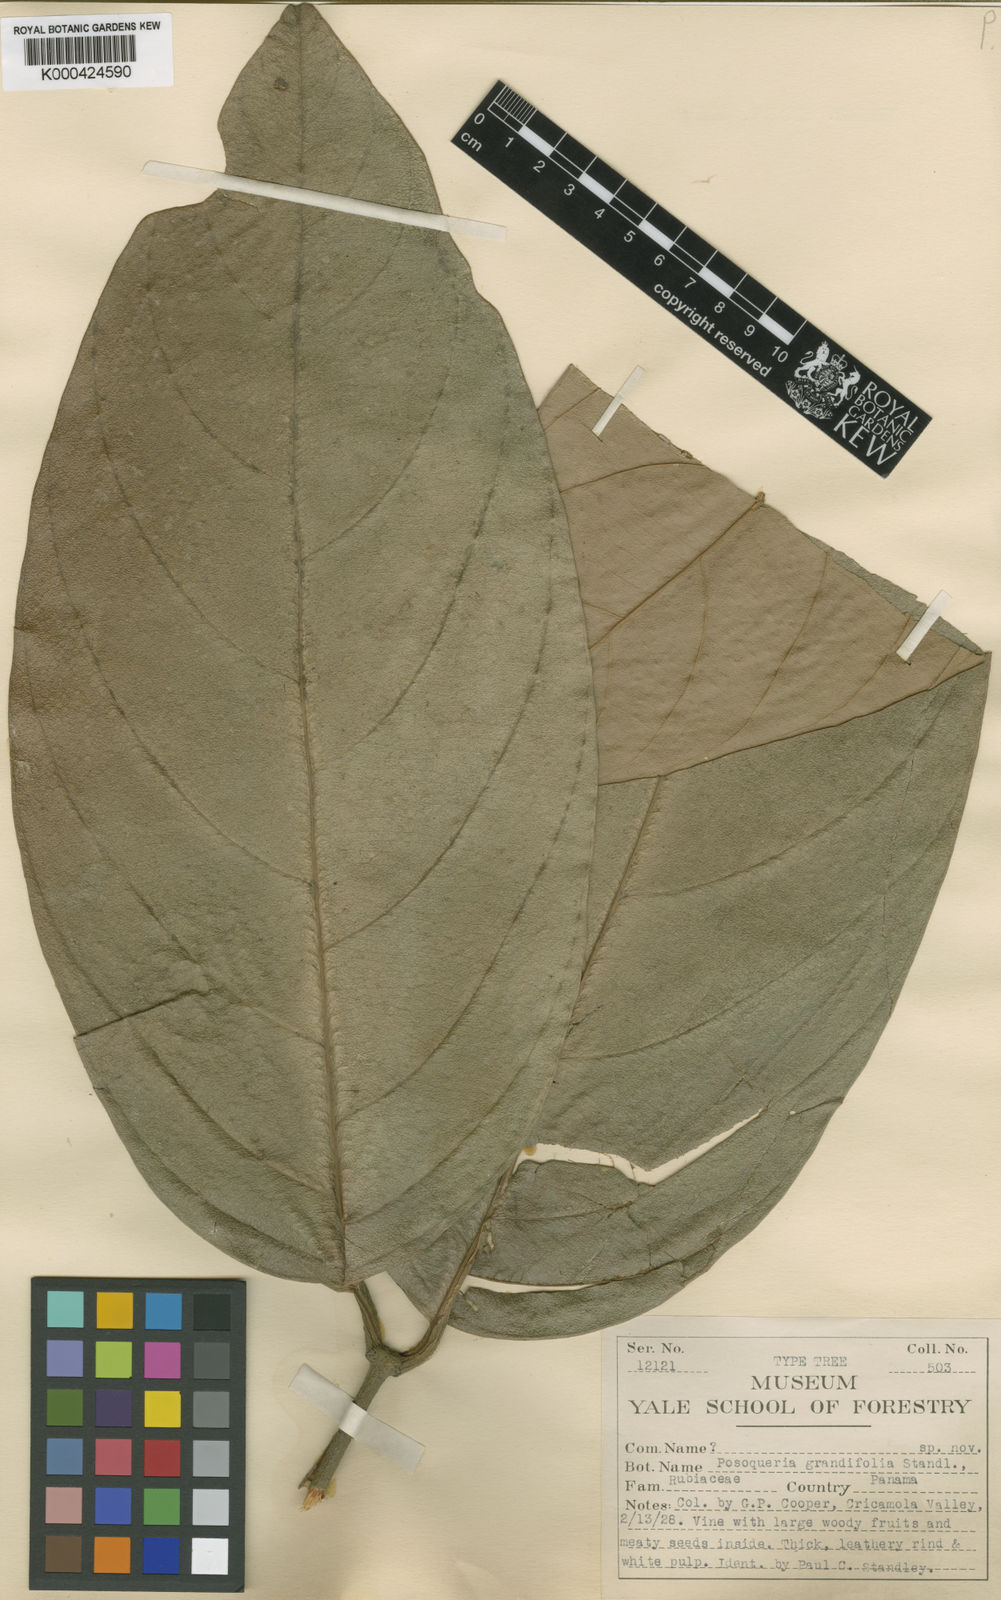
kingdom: Plantae
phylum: Tracheophyta
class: Magnoliopsida
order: Gentianales
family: Rubiaceae
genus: Posoqueria
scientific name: Posoqueria latifolia
